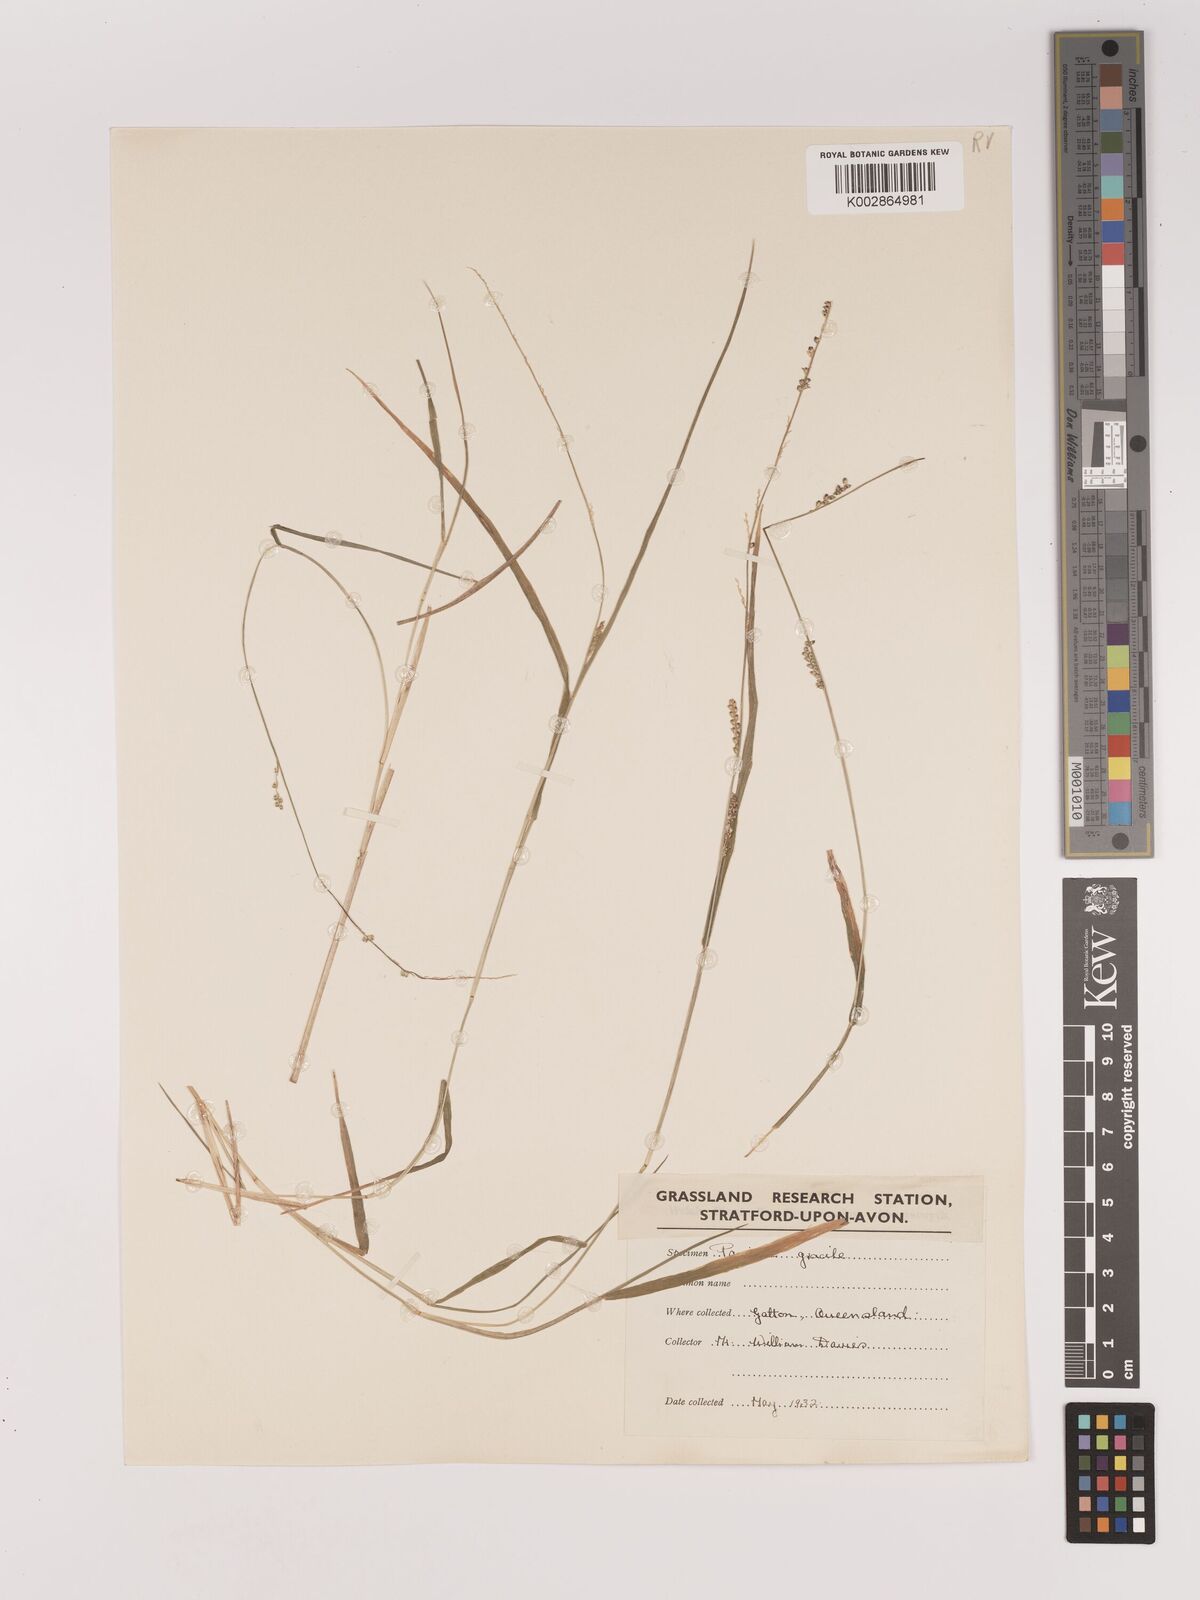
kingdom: Plantae
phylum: Tracheophyta
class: Liliopsida
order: Poales
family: Poaceae
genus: Setaria
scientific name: Setaria
